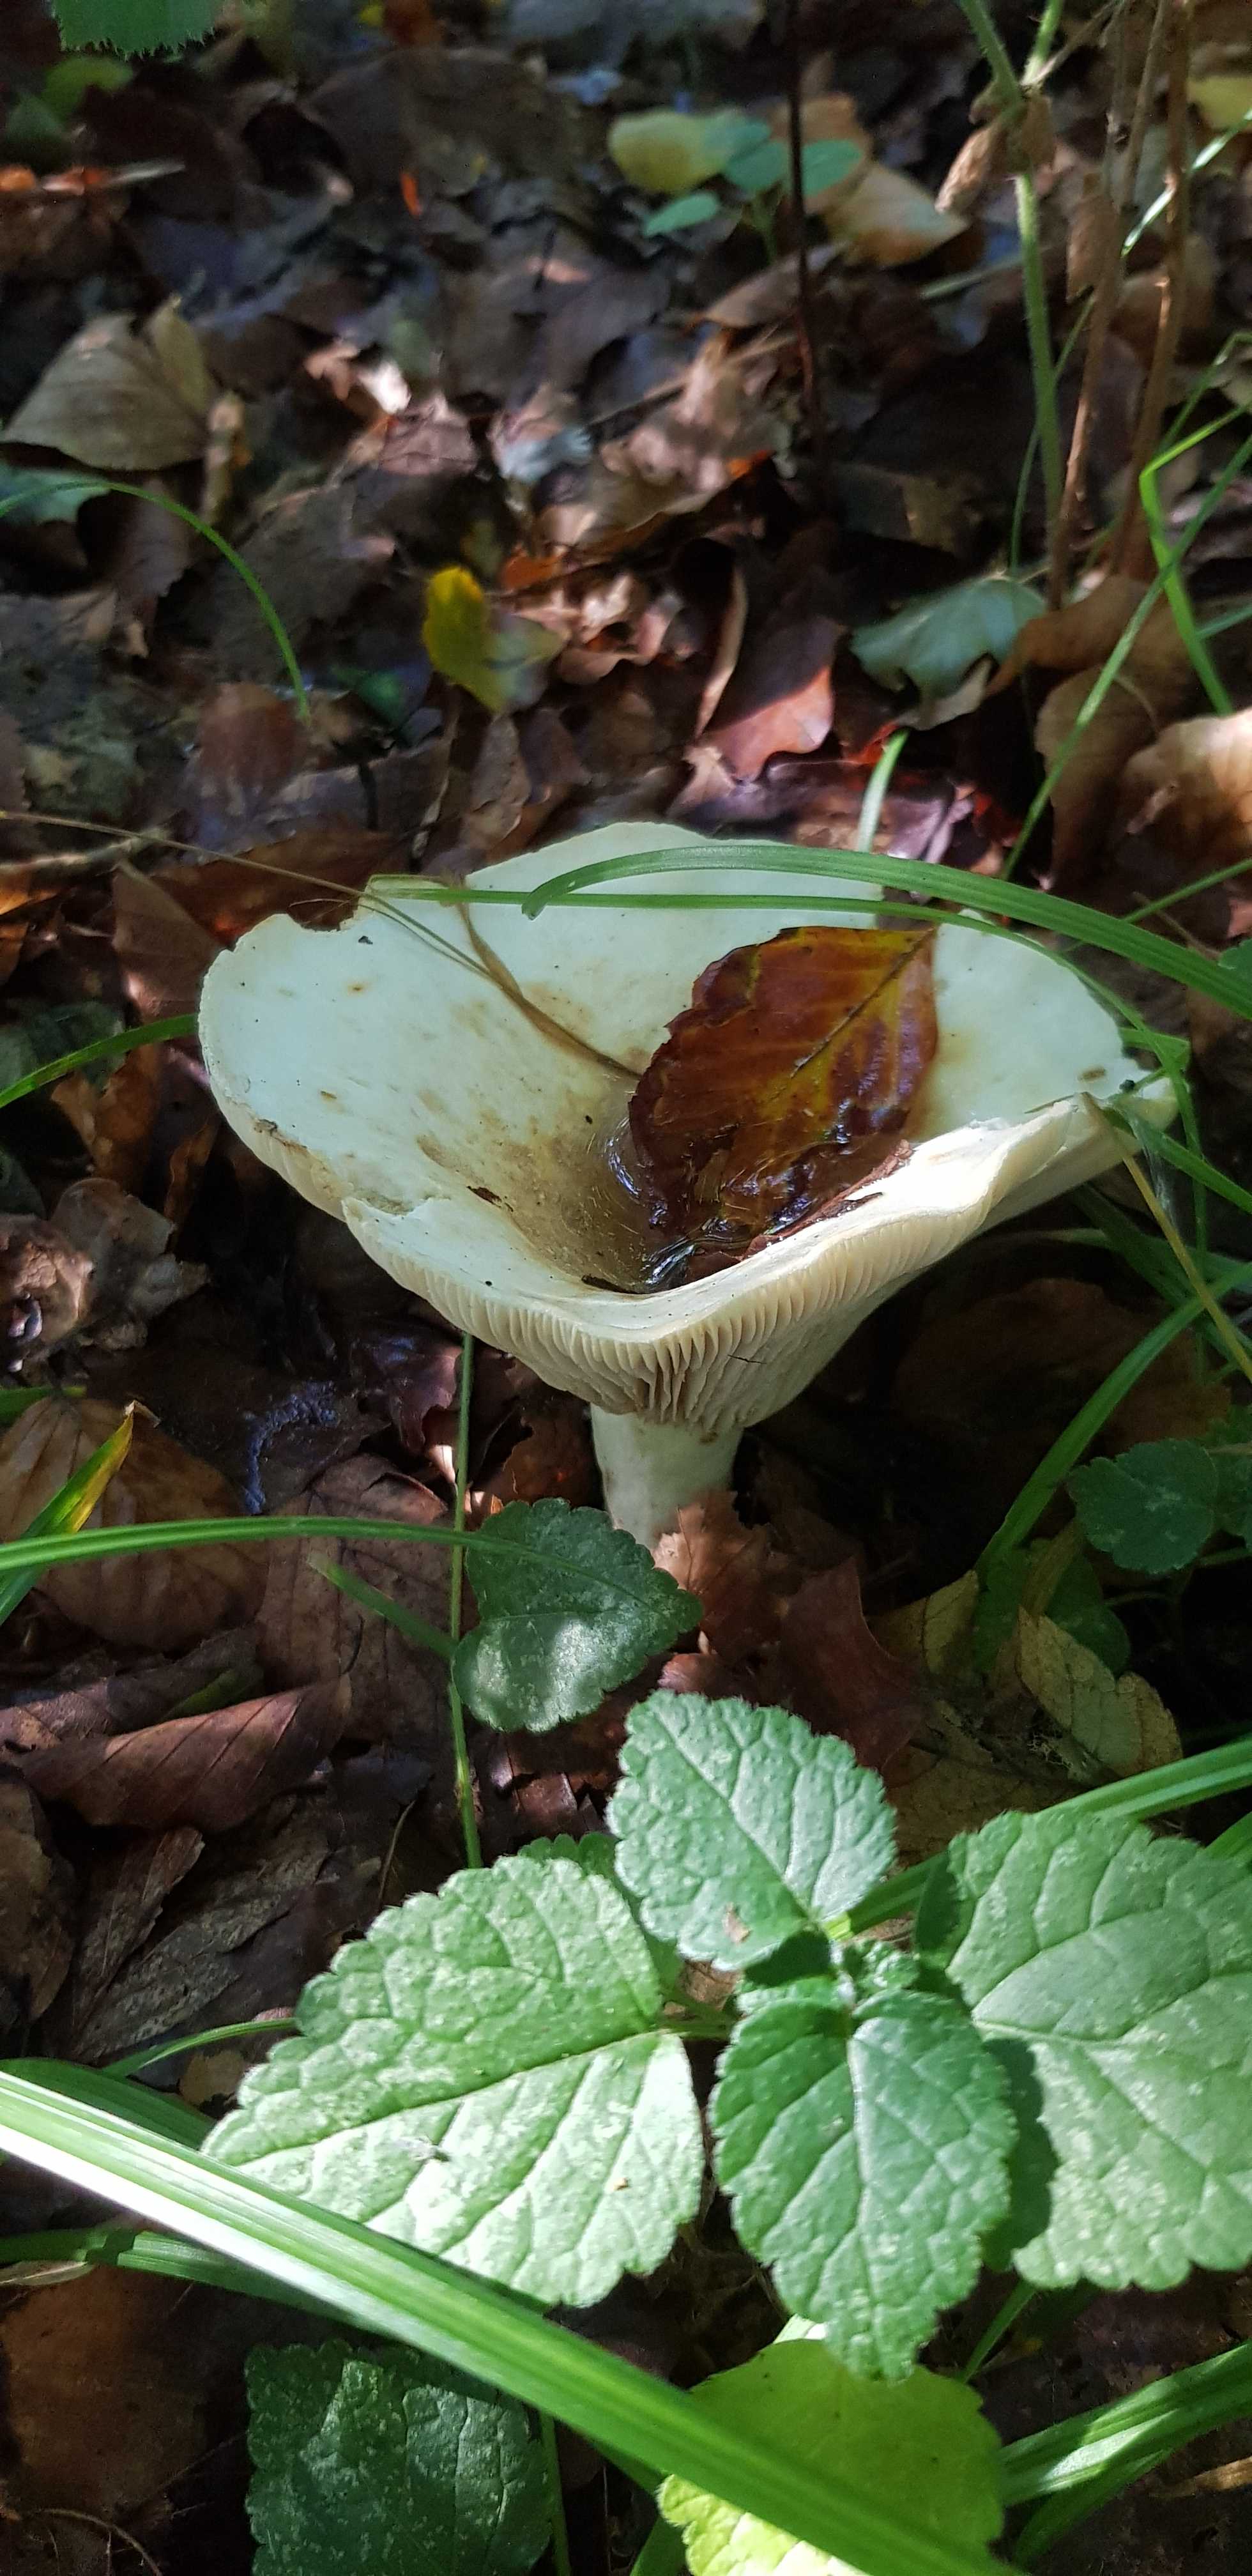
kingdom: Fungi
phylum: Basidiomycota
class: Agaricomycetes
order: Russulales
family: Russulaceae
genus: Lactifluus
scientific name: Lactifluus vellereus
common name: hvidfiltet mælkehat
